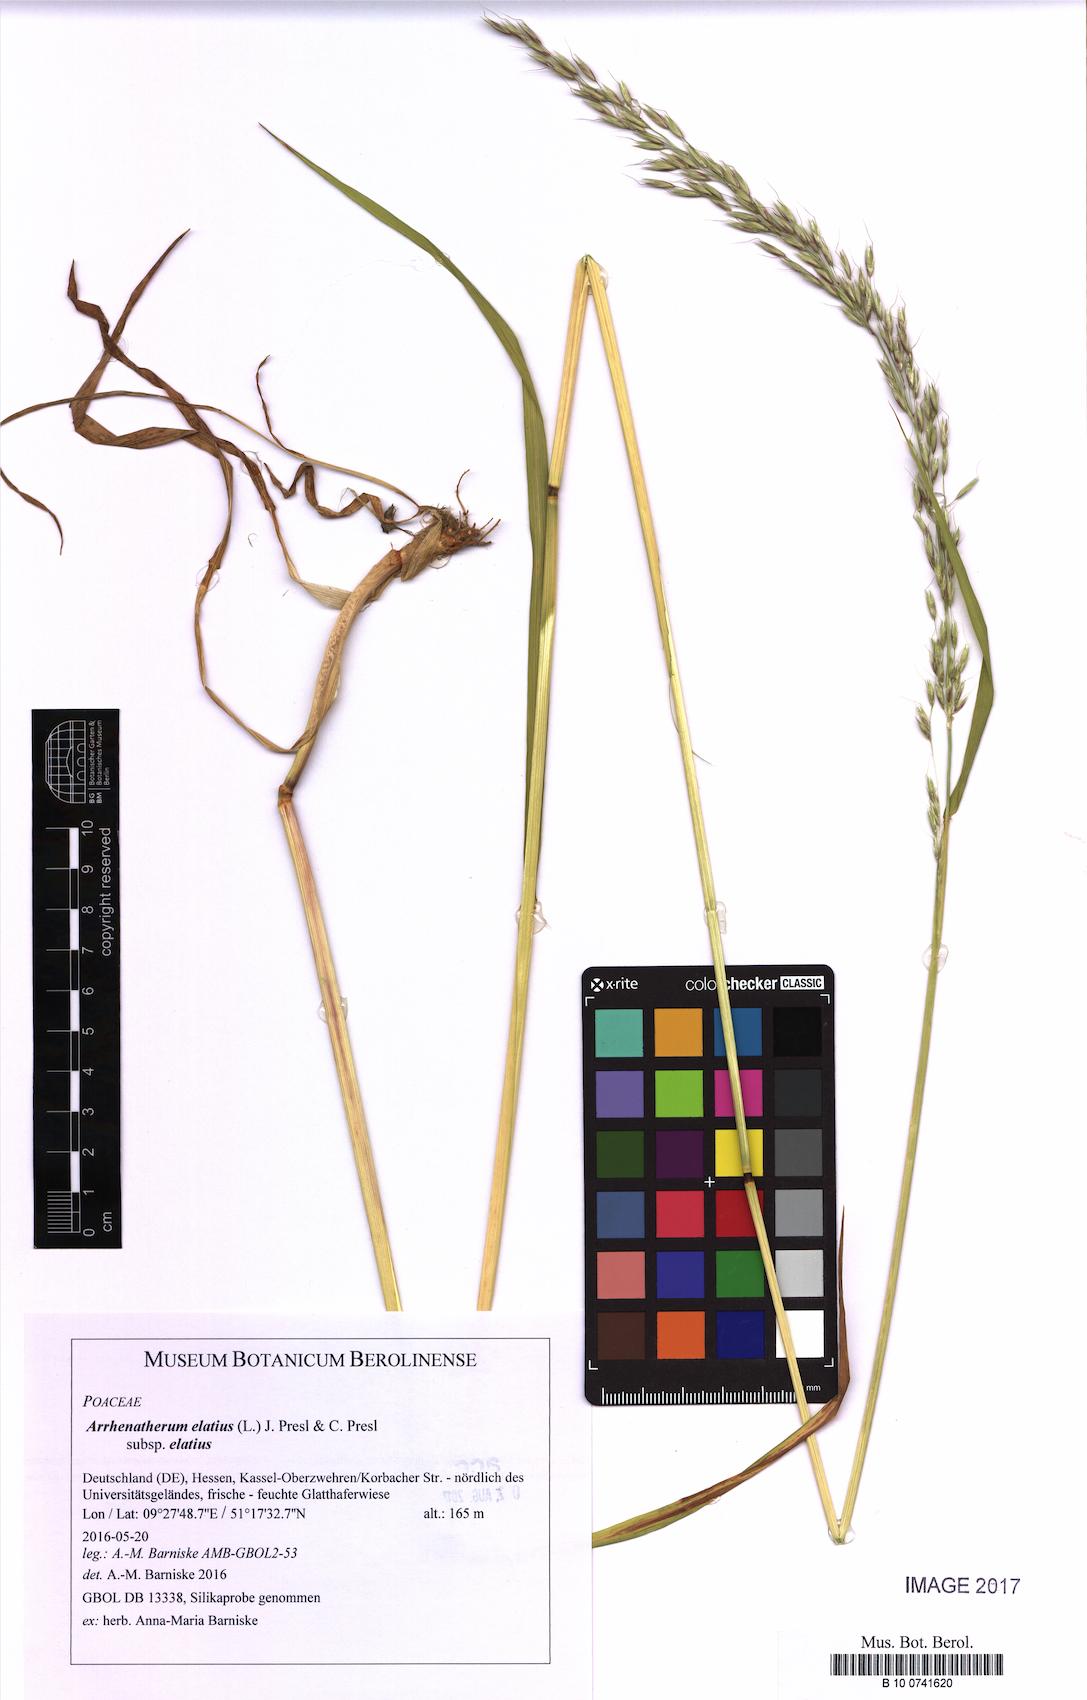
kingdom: Plantae
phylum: Tracheophyta
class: Liliopsida
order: Poales
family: Poaceae
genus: Arrhenatherum
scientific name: Arrhenatherum elatius
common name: Tall oatgrass
